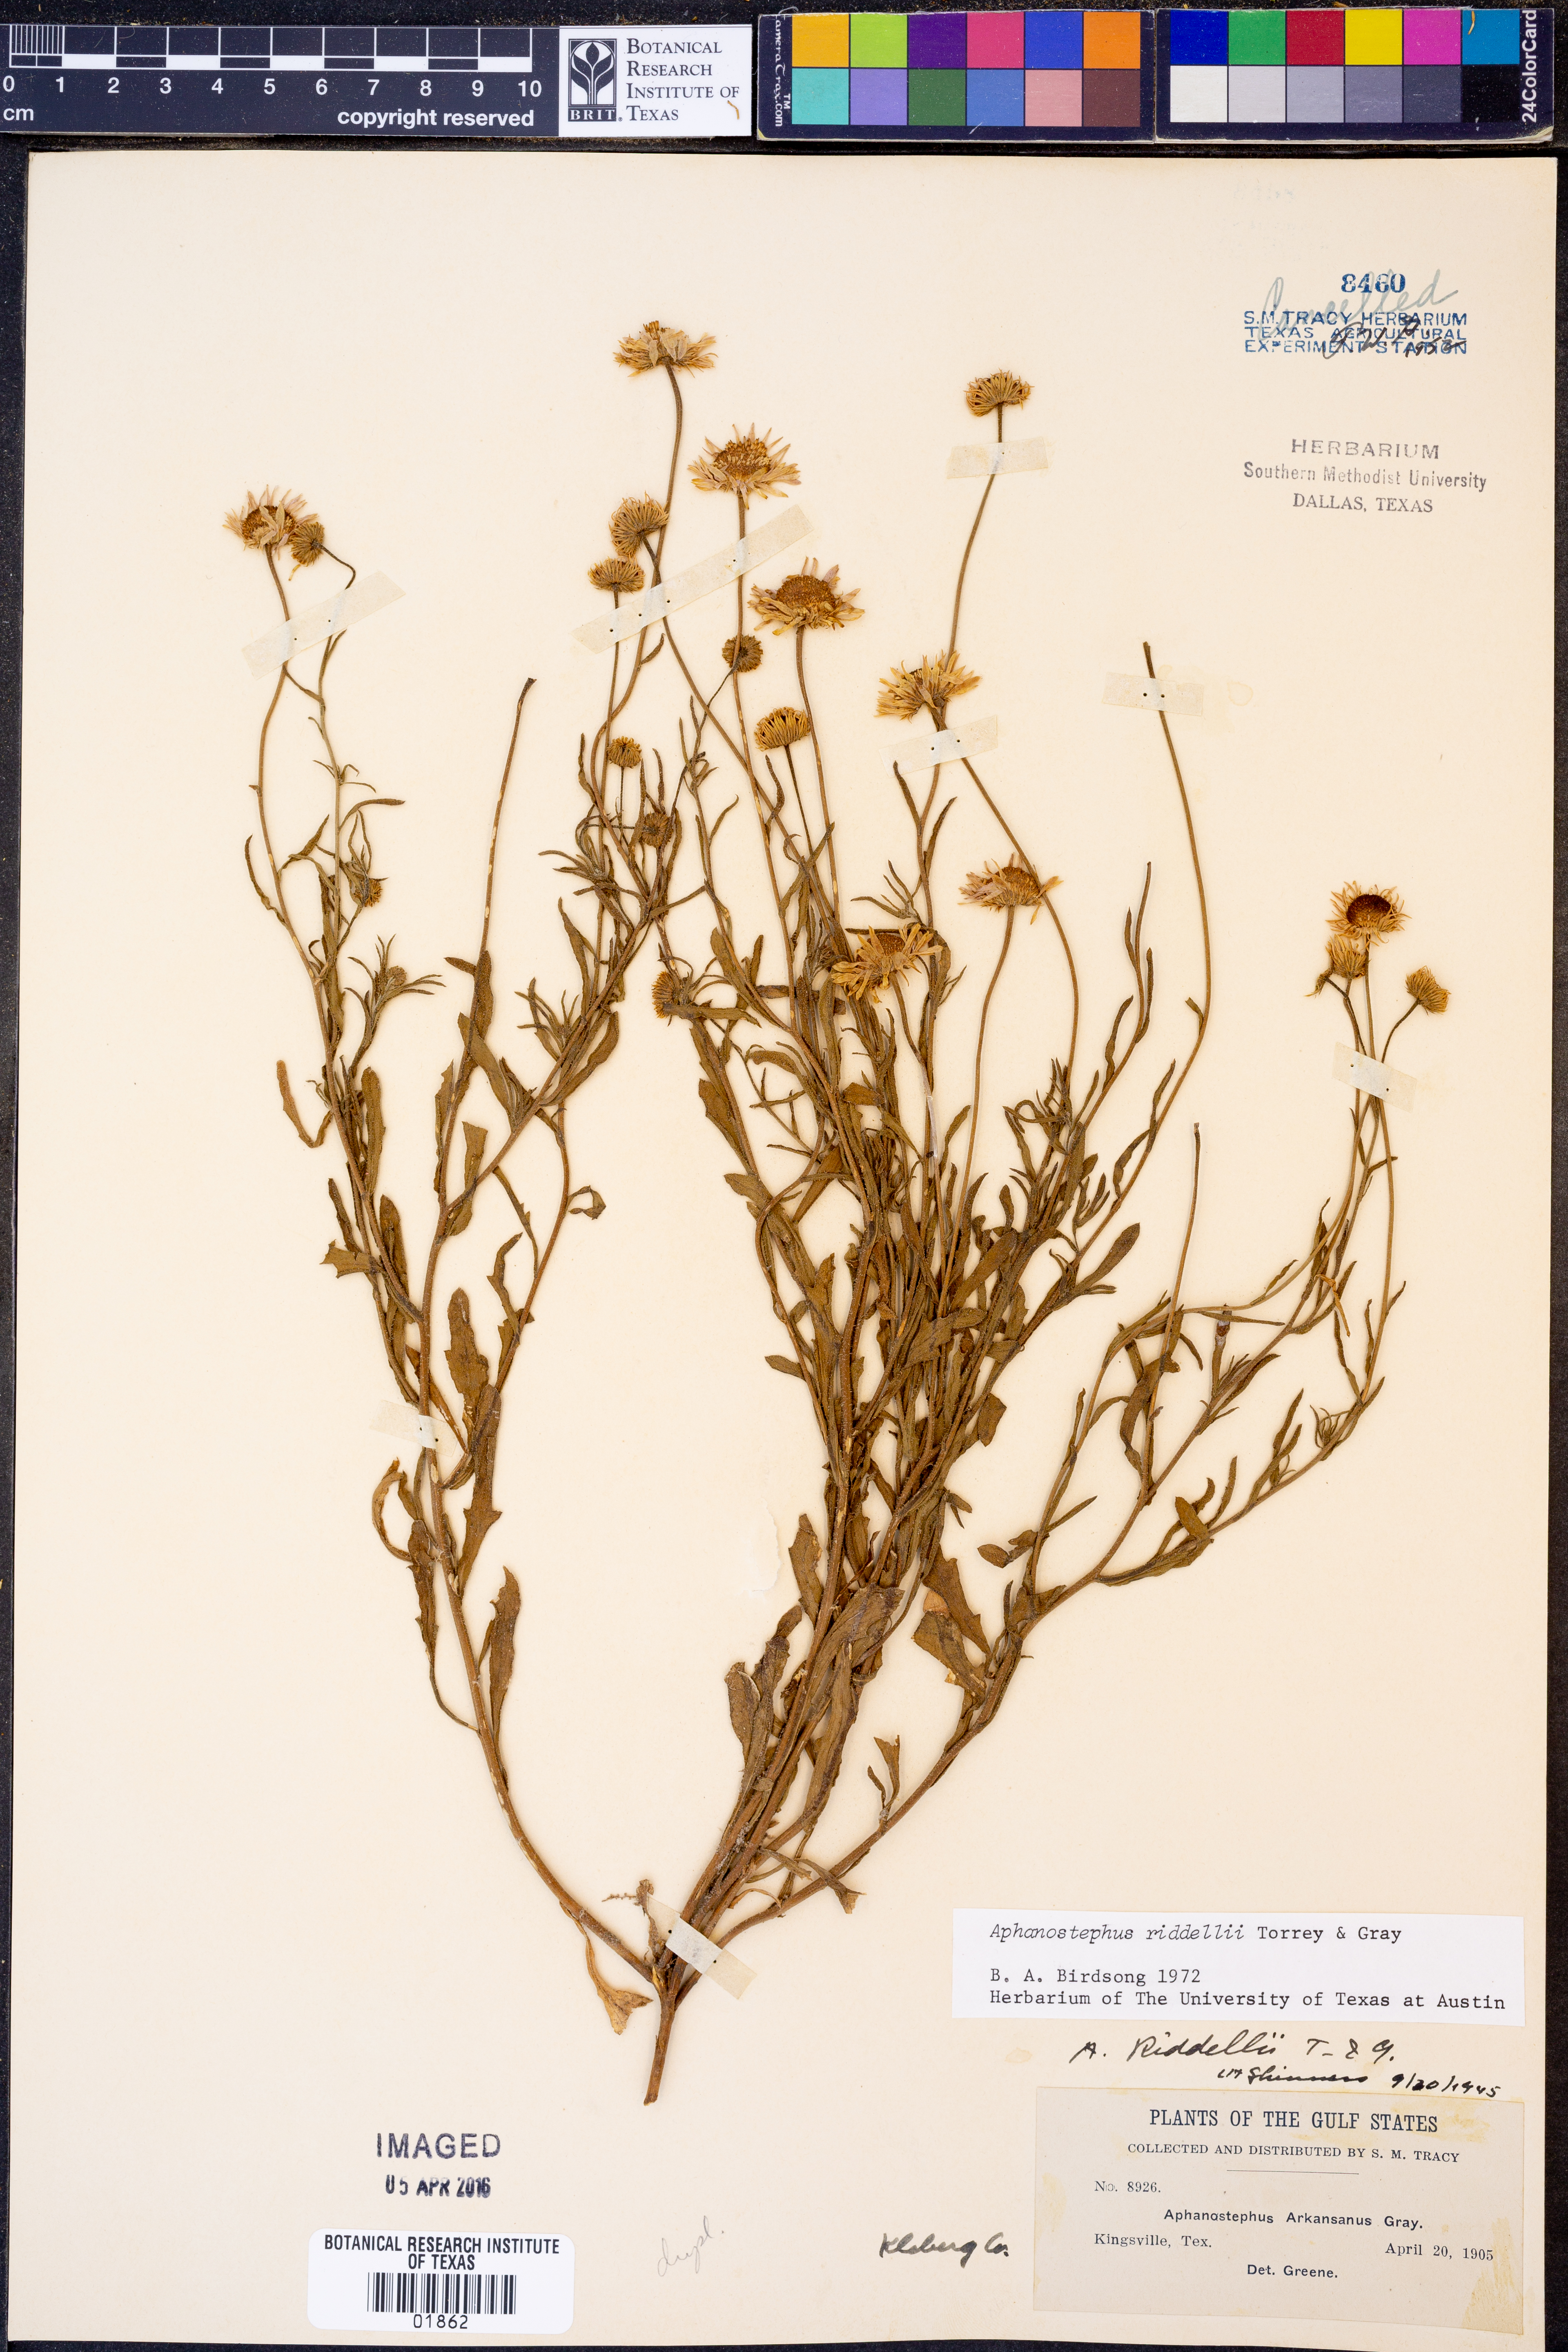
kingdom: Plantae
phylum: Tracheophyta
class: Magnoliopsida
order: Asterales
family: Asteraceae
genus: Aphanostephus
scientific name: Aphanostephus riddellii
